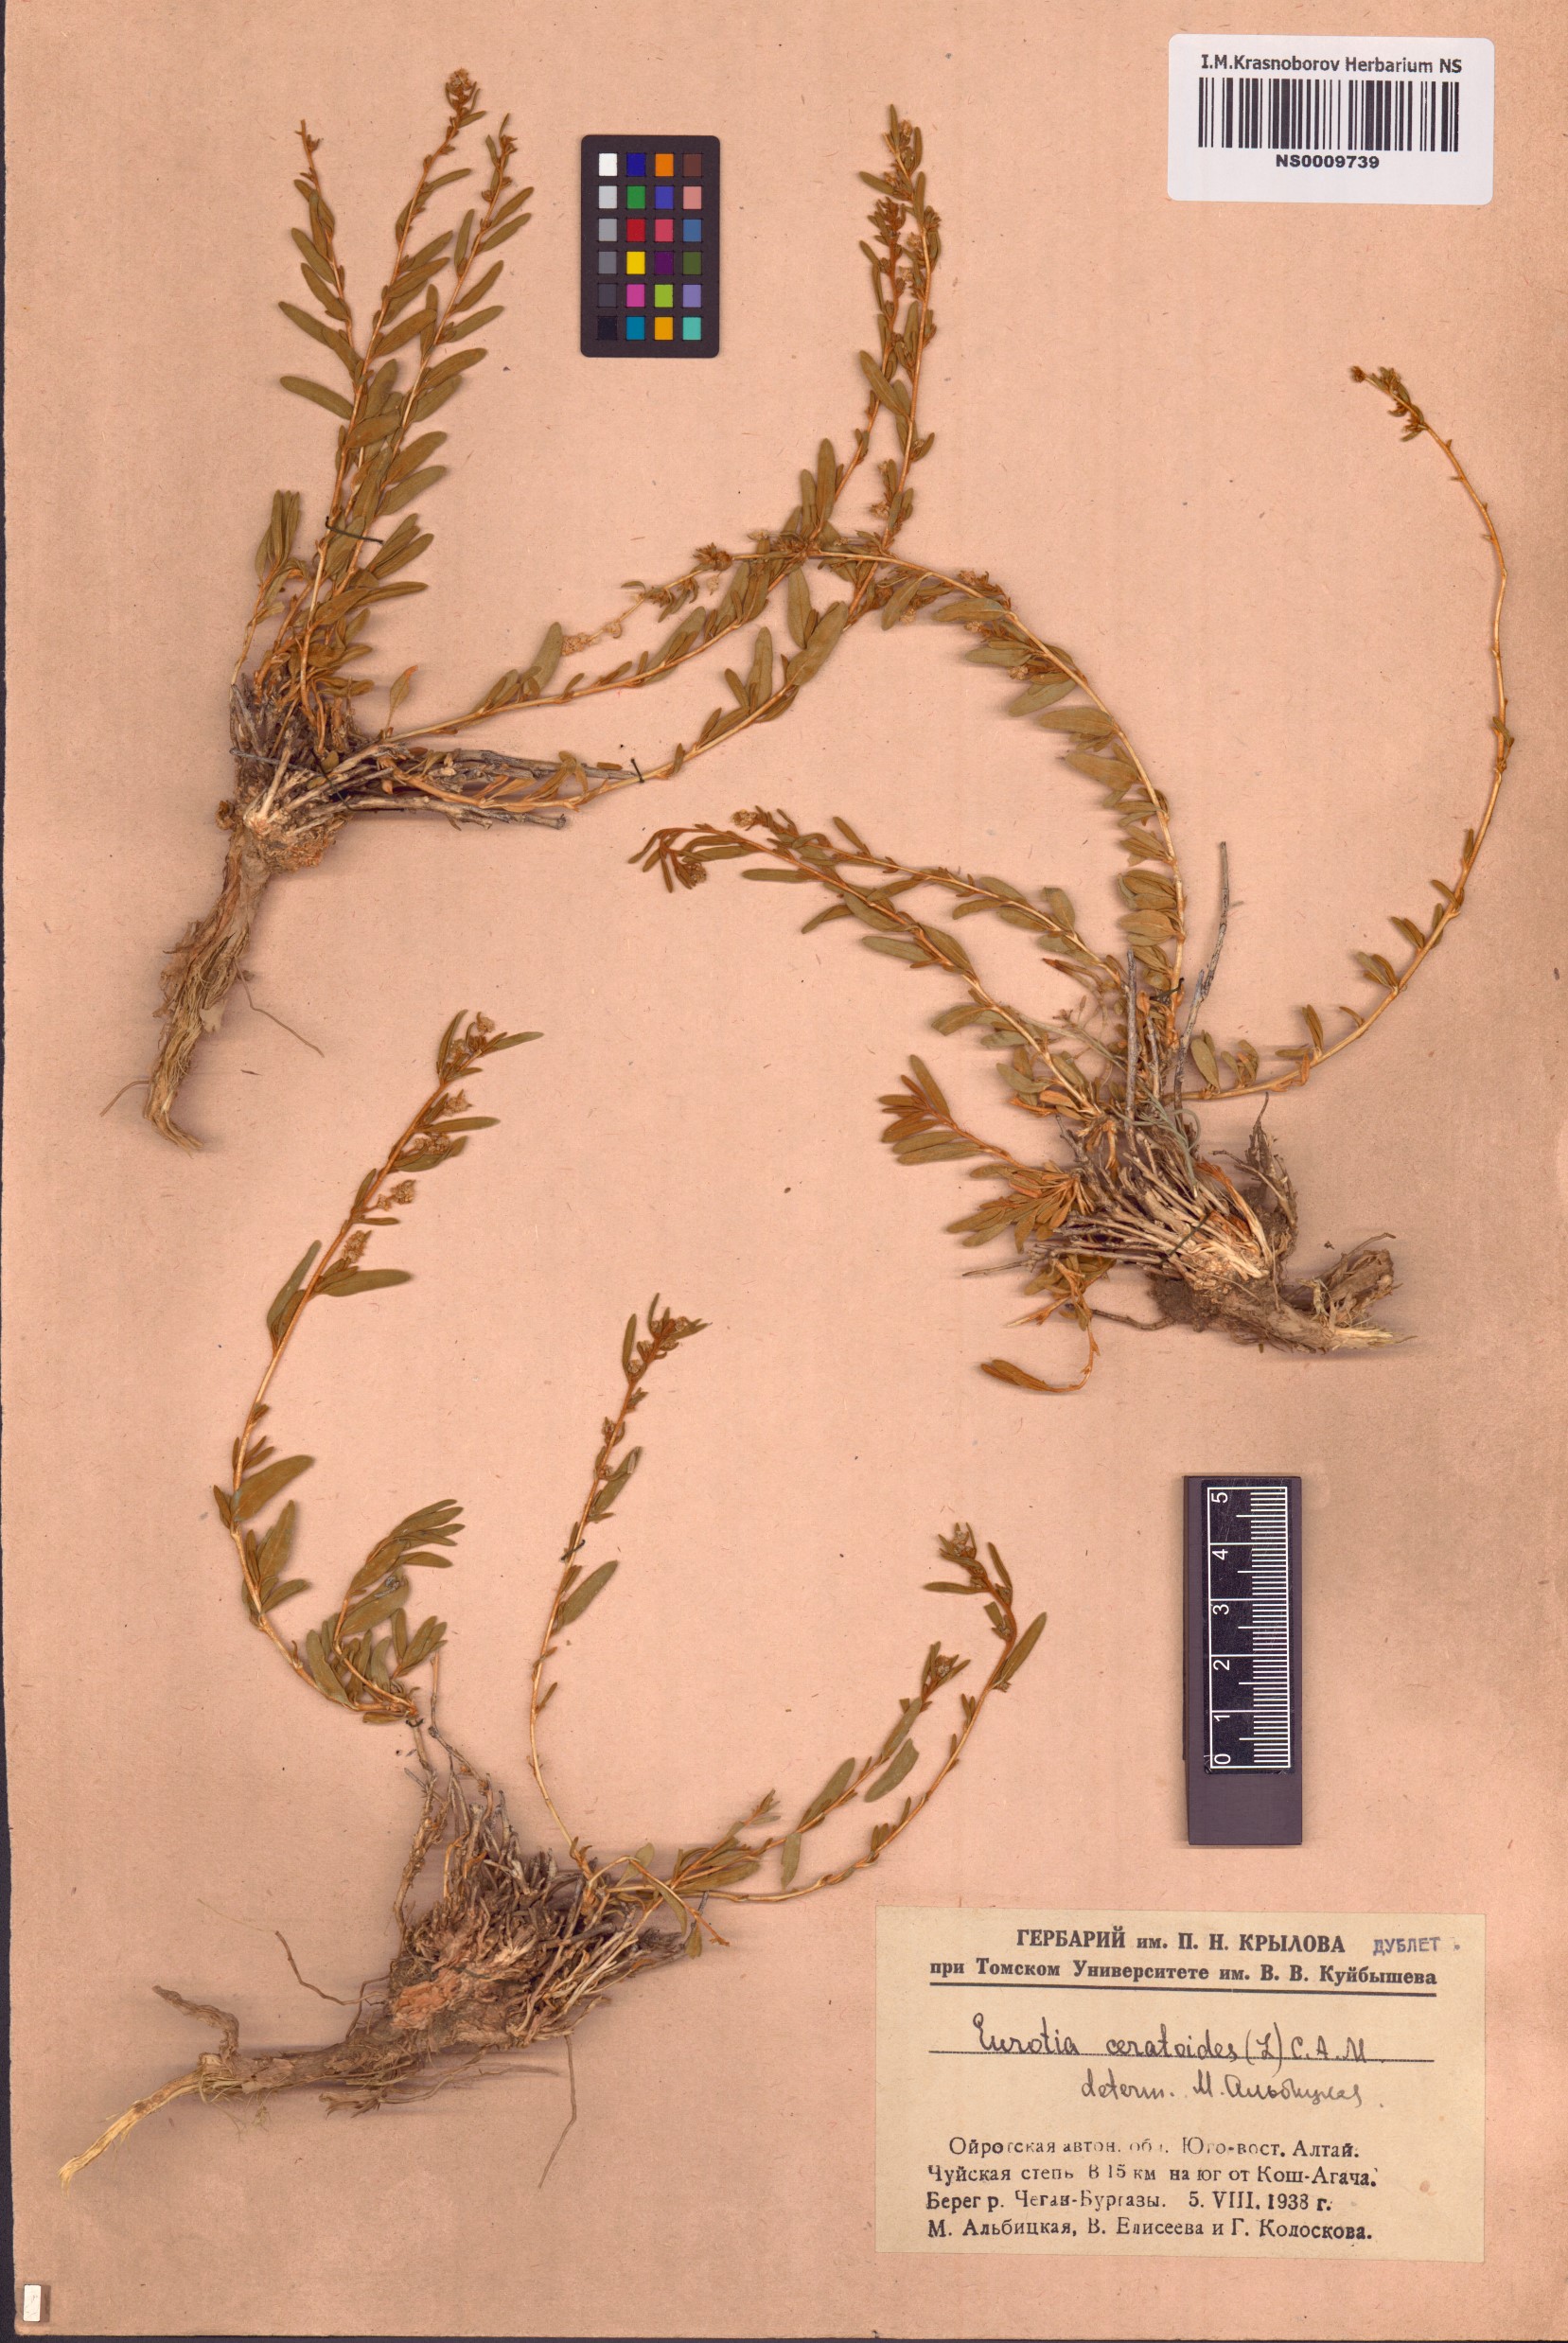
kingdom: Plantae
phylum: Tracheophyta
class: Magnoliopsida
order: Caryophyllales
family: Amaranthaceae
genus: Krascheninnikovia
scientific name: Krascheninnikovia ceratoides
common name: Pamirian winterfat
